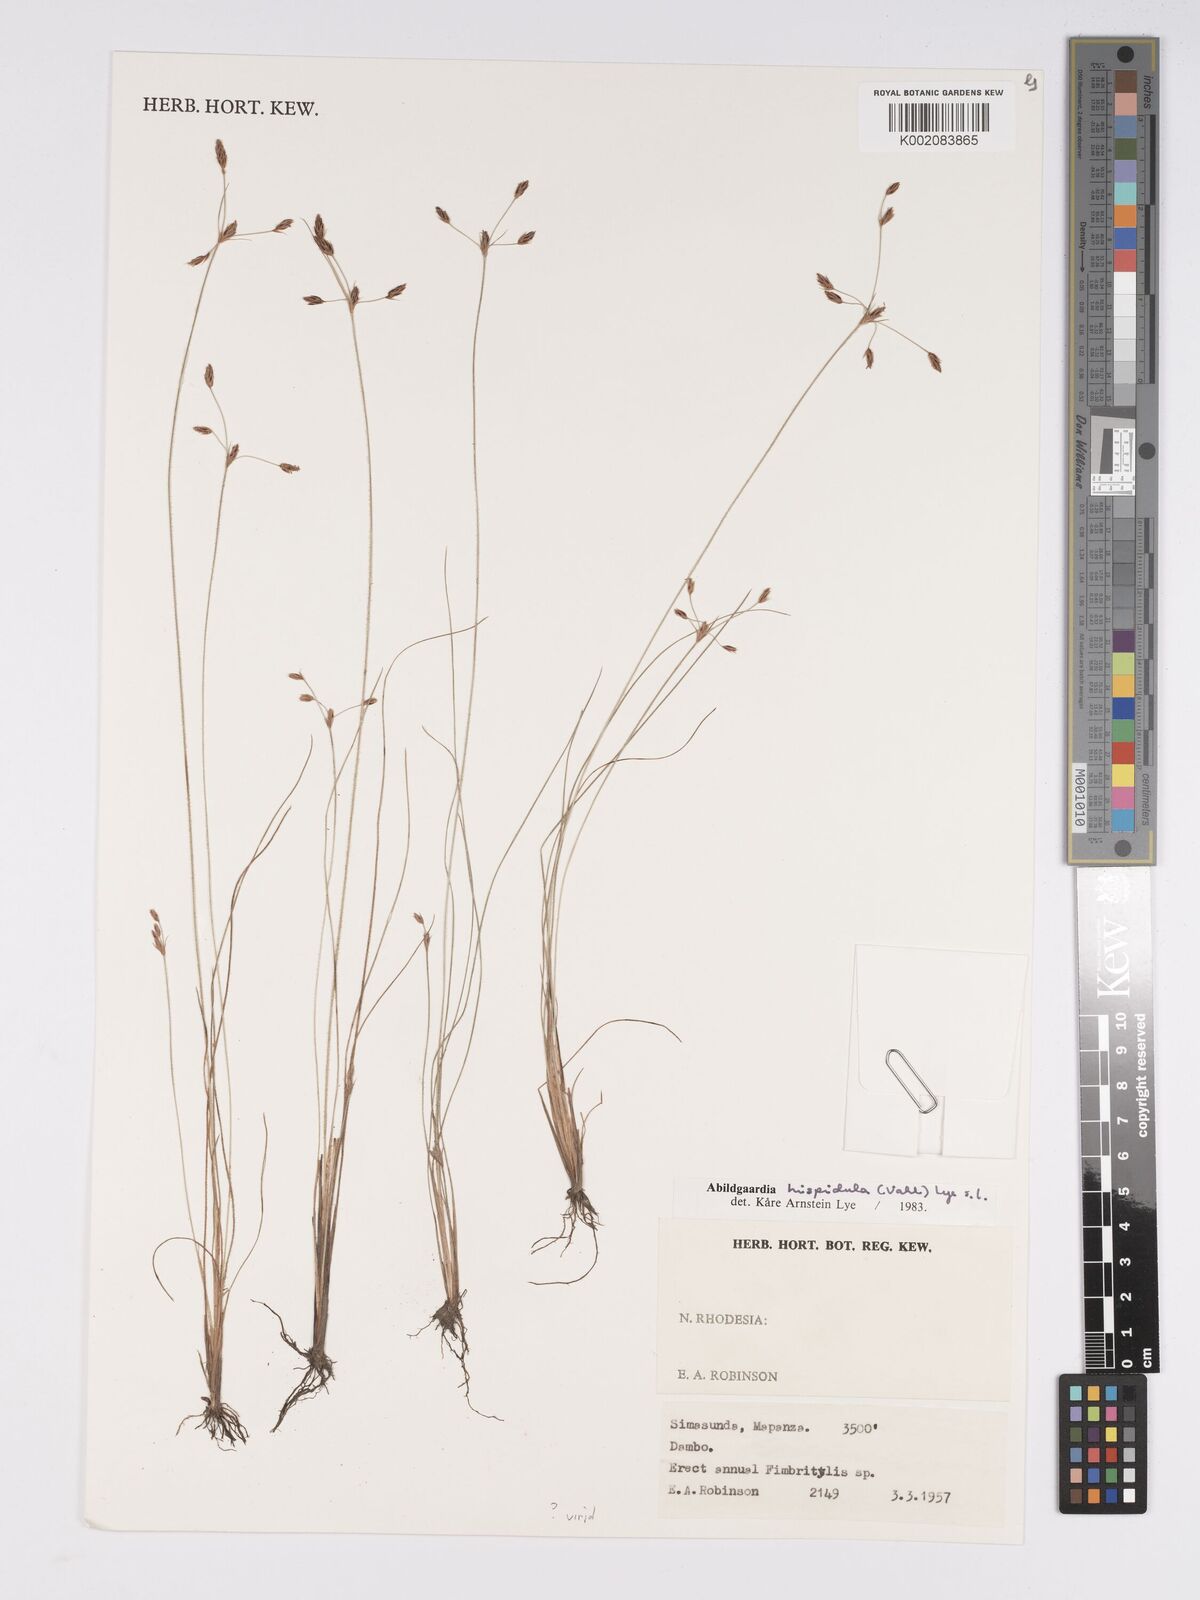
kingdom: Plantae
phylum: Tracheophyta
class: Liliopsida
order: Poales
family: Cyperaceae
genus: Bulbostylis
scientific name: Bulbostylis hispidula
